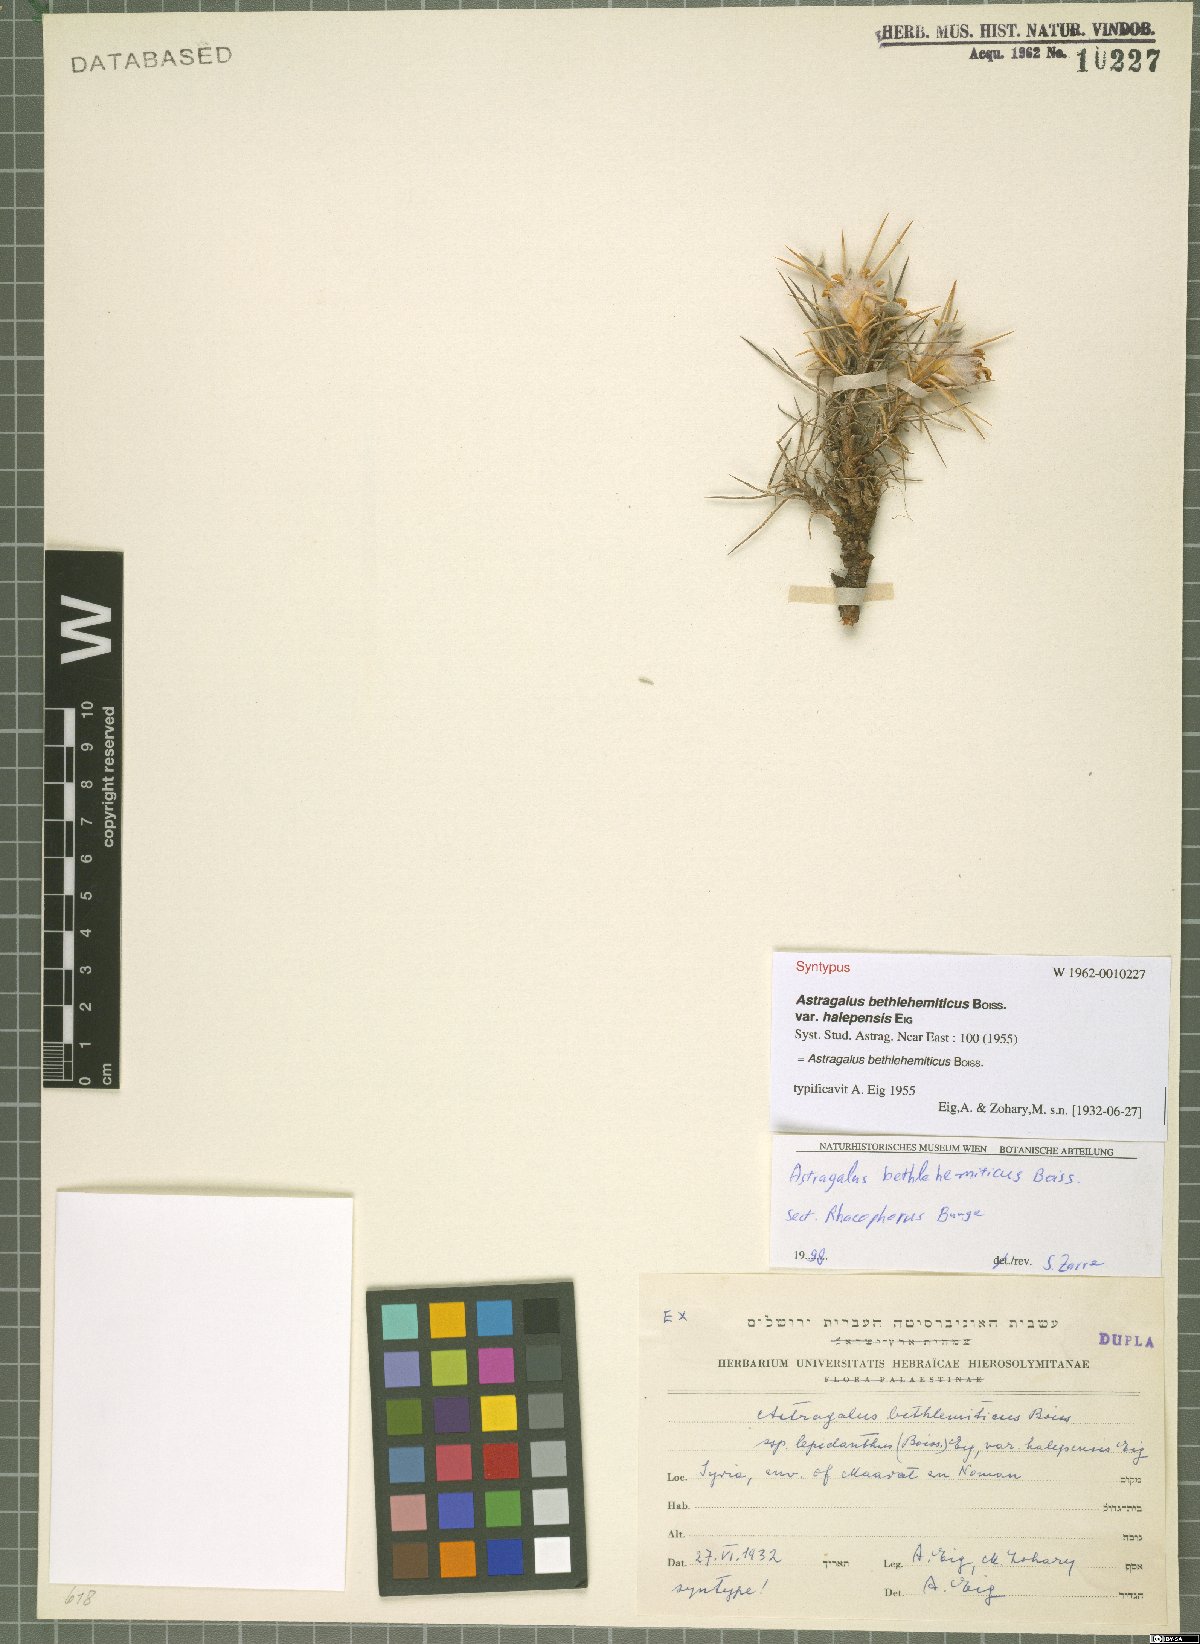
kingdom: Plantae
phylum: Tracheophyta
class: Magnoliopsida
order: Fabales
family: Fabaceae
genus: Astragalus
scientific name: Astragalus bethlehemiticus
